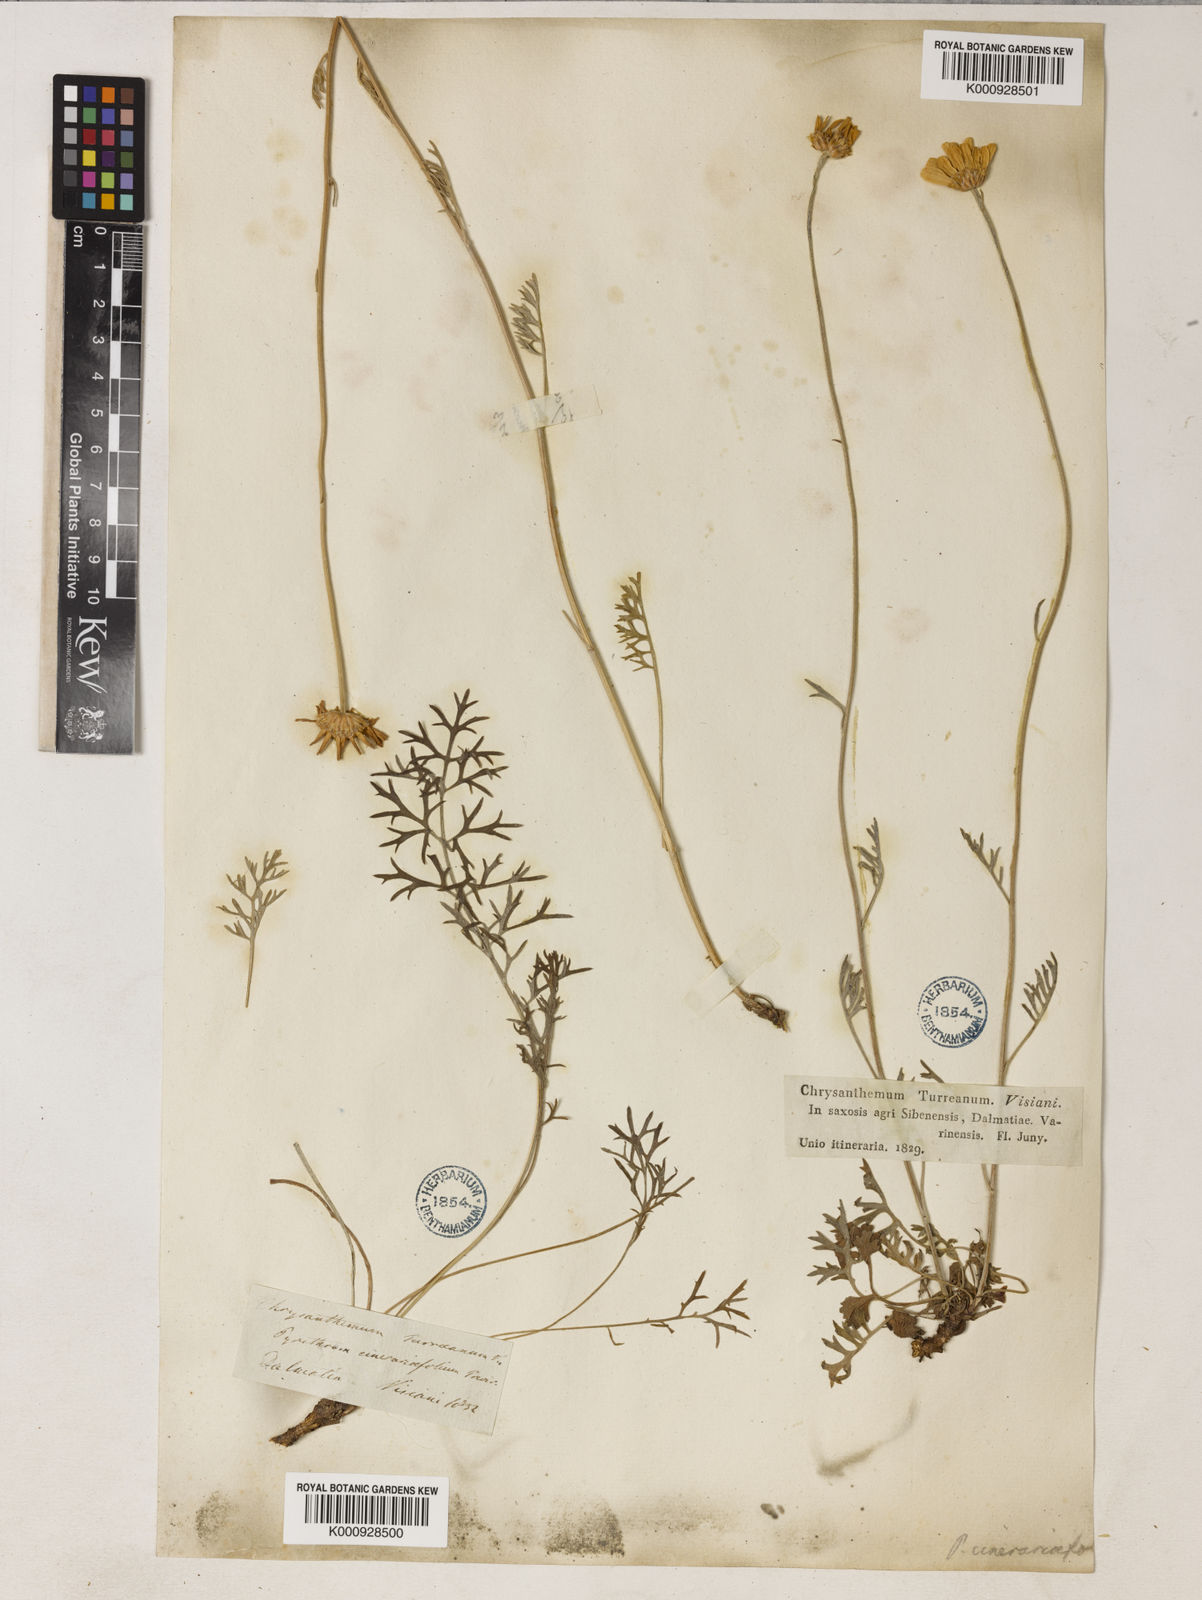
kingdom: Plantae
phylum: Tracheophyta
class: Magnoliopsida
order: Asterales
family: Asteraceae
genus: Tanacetum
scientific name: Tanacetum cinerariifolium
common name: Dalmatian pyrethrum
